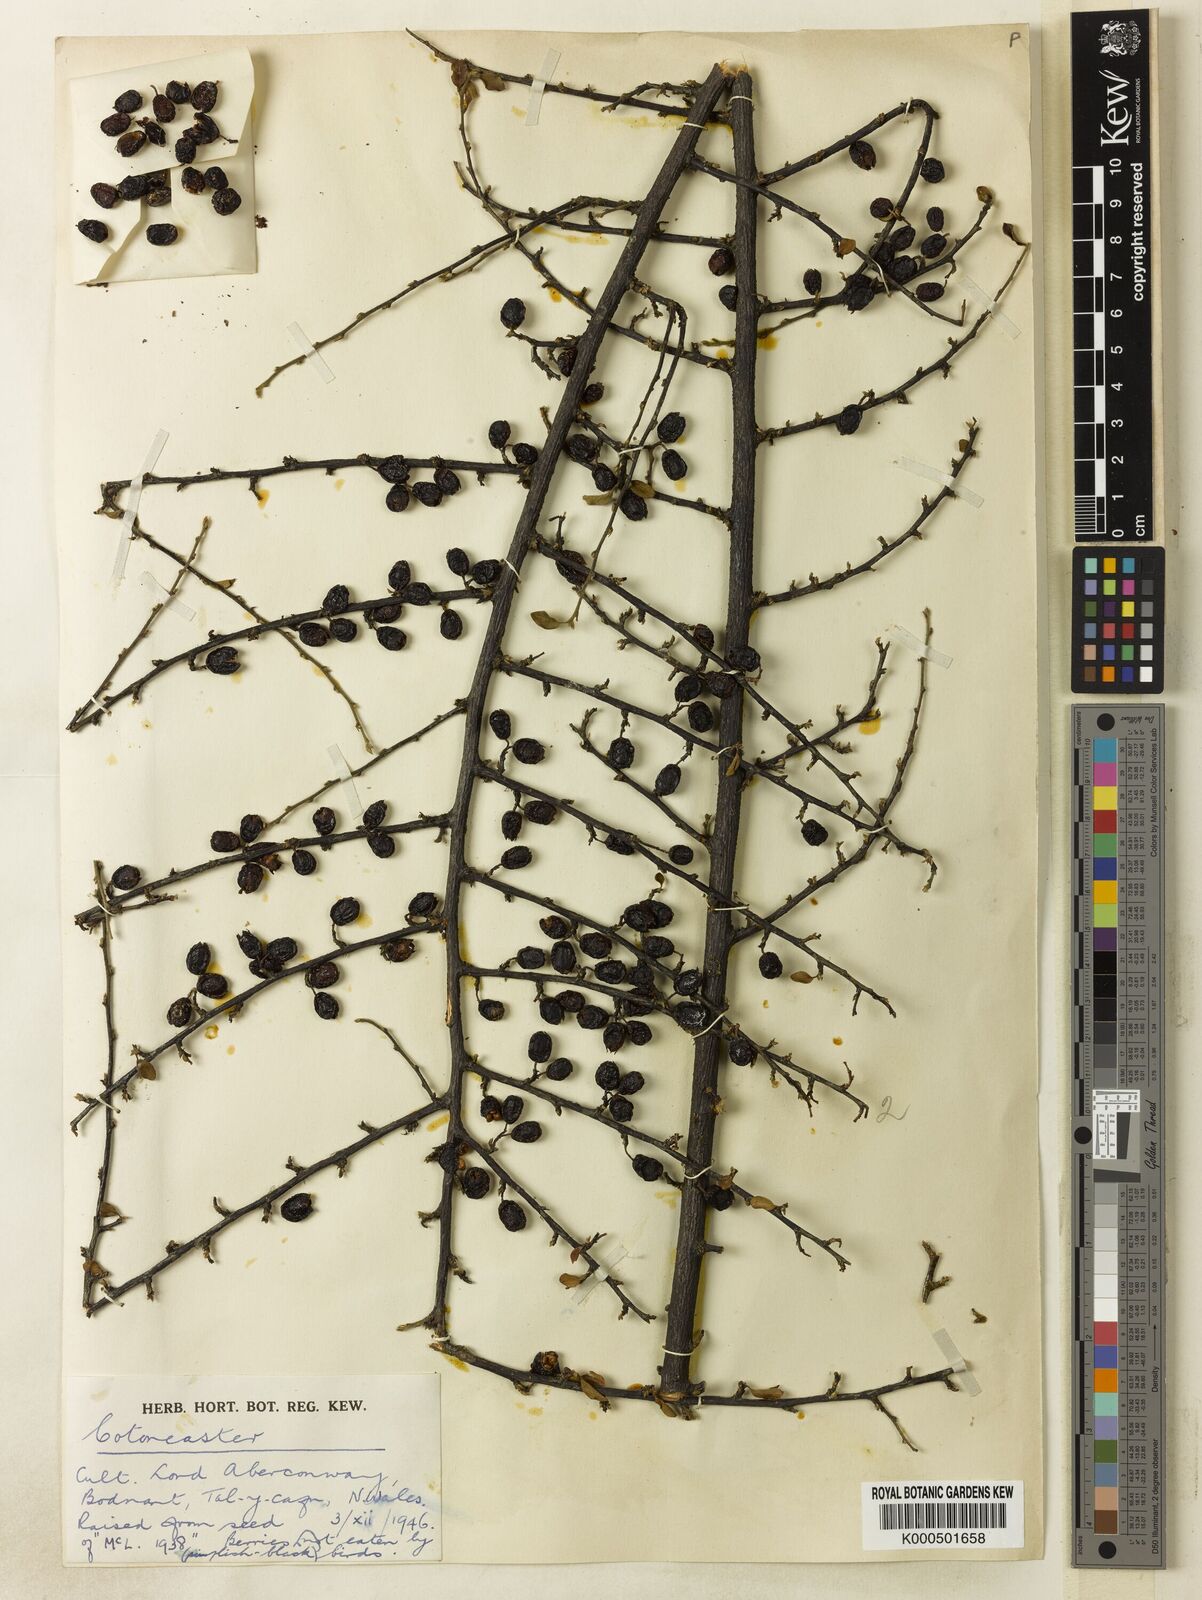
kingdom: Plantae
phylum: Tracheophyta
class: Magnoliopsida
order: Rosales
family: Rosaceae
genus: Cotoneaster
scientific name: Cotoneaster rotundifolius
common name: Round-leaved cotoneaster
